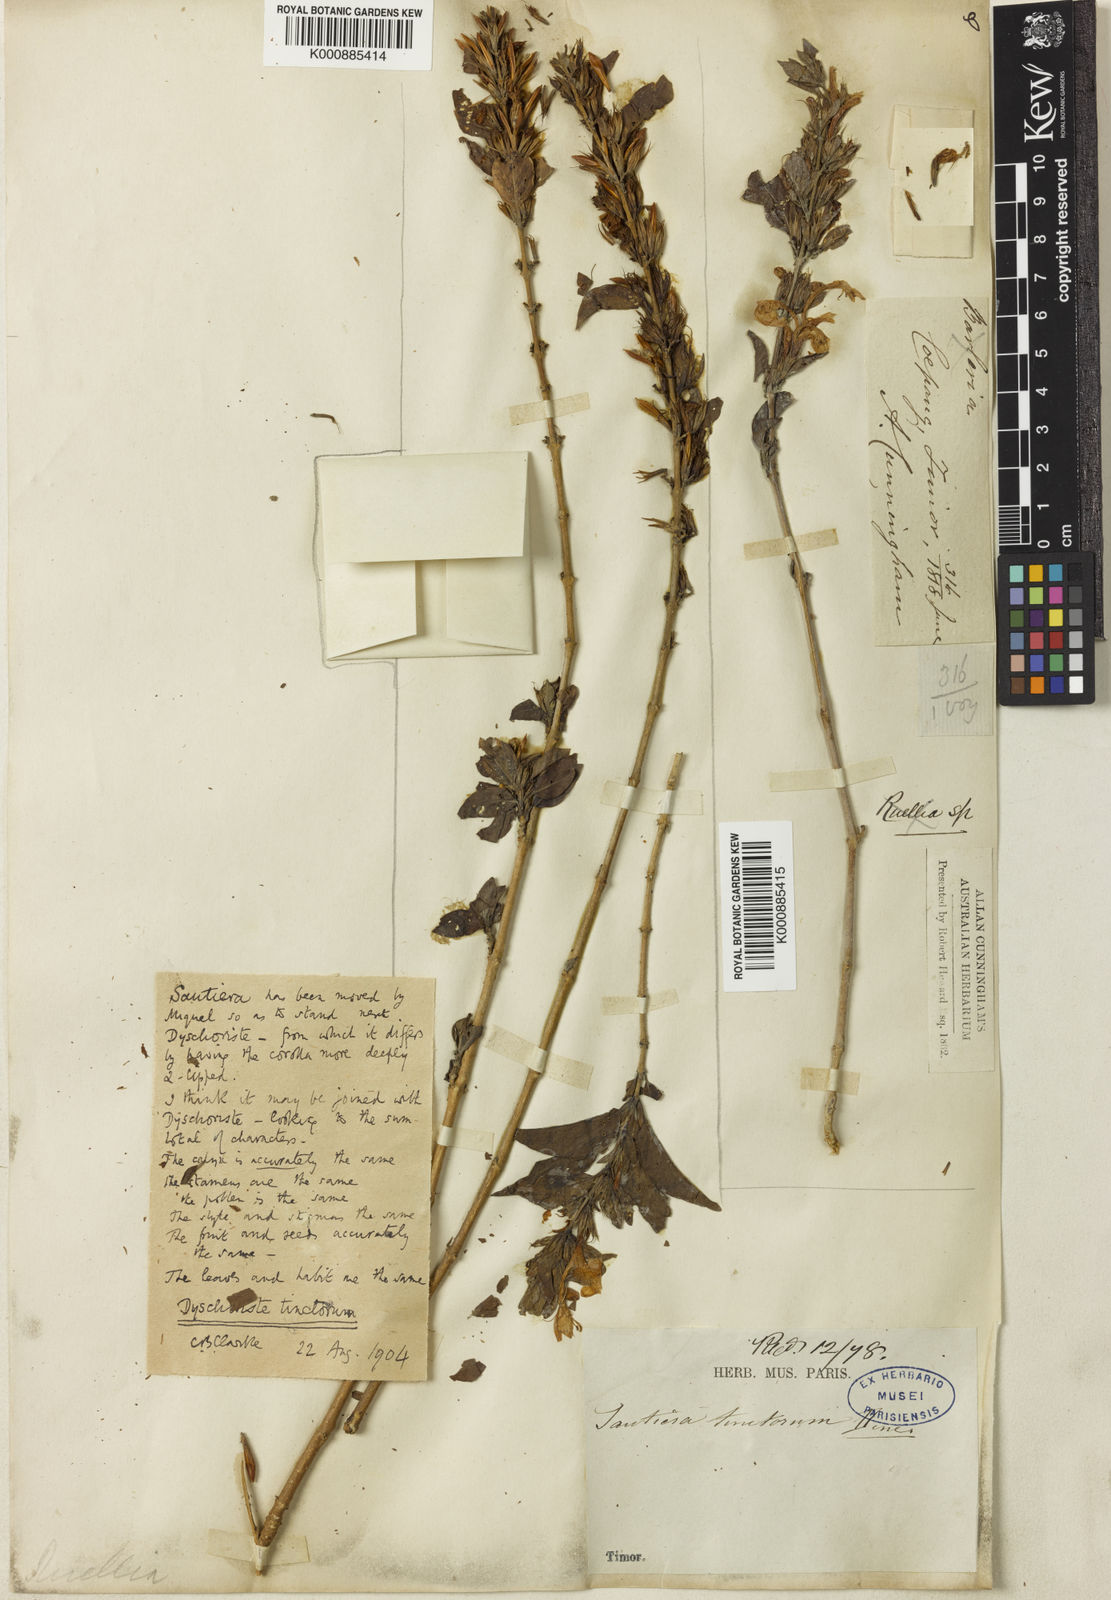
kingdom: Plantae
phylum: Tracheophyta
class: Magnoliopsida
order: Lamiales
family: Acanthaceae
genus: Dyschoriste
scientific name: Dyschoriste tinctorum
